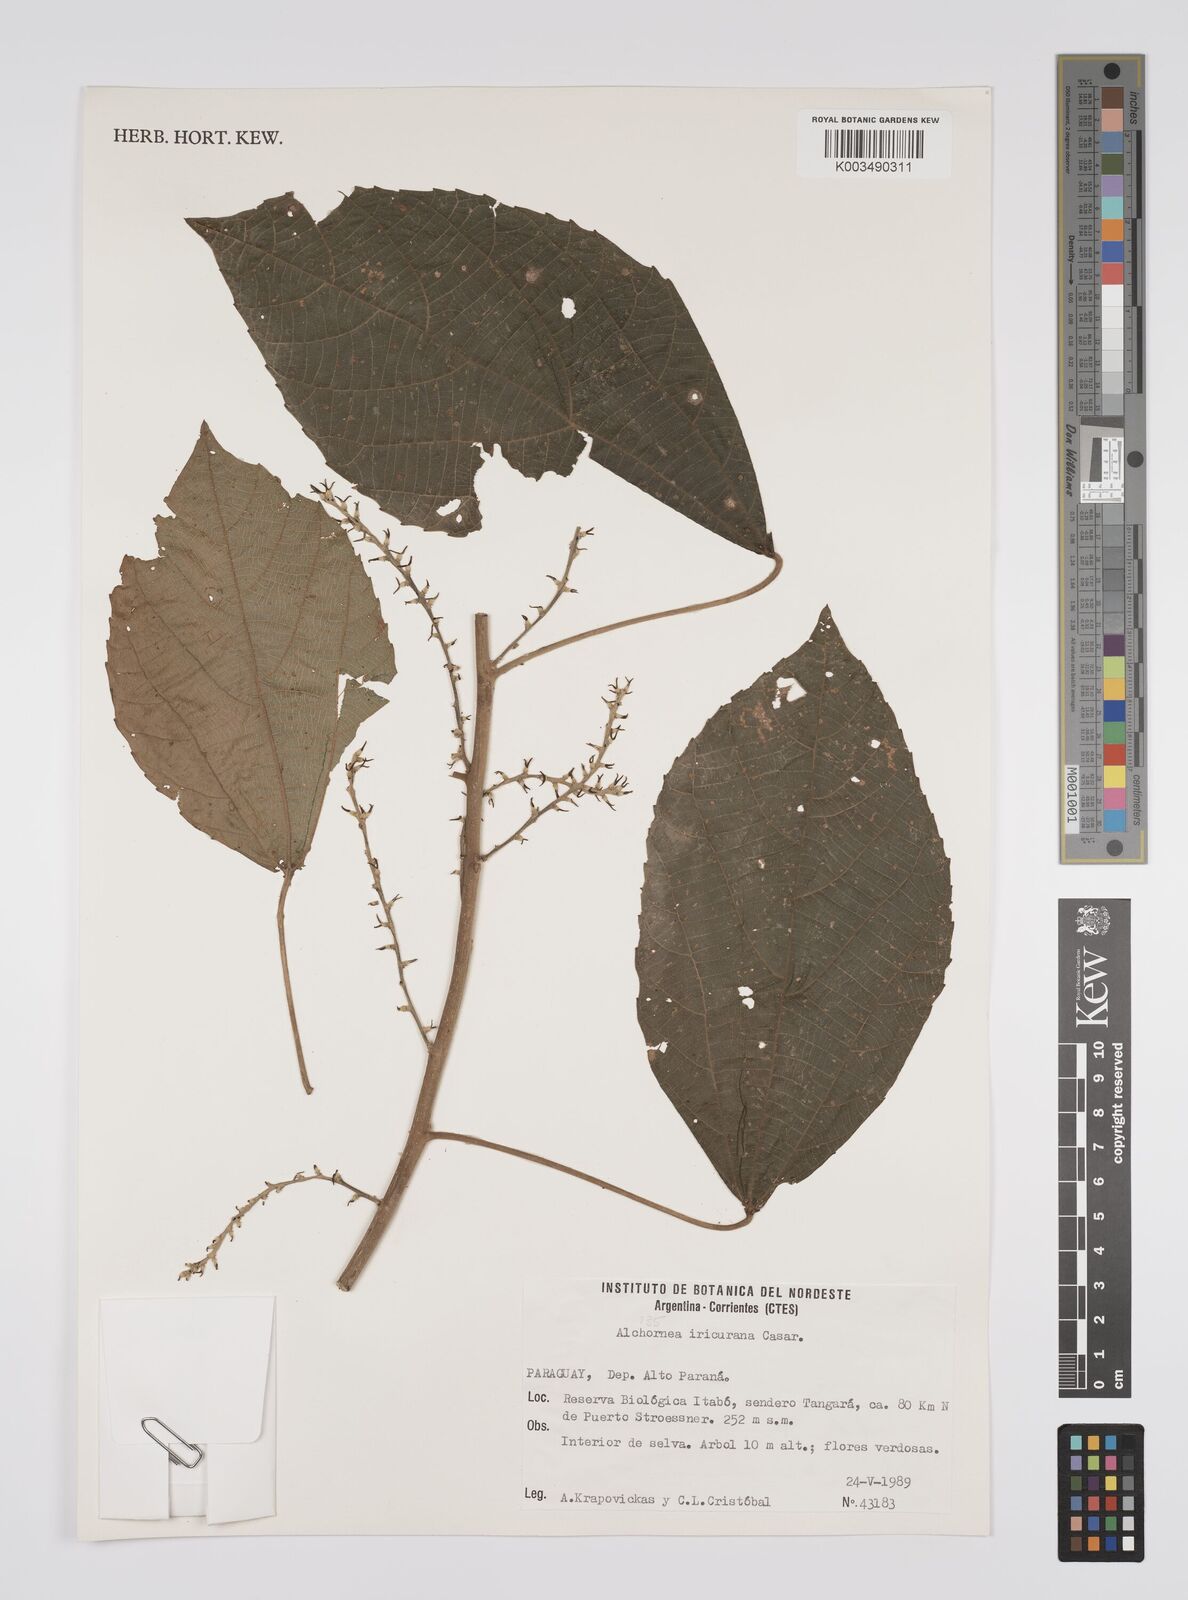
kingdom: Plantae
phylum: Tracheophyta
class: Magnoliopsida
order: Malpighiales
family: Euphorbiaceae
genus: Alchornea
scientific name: Alchornea glandulosa
